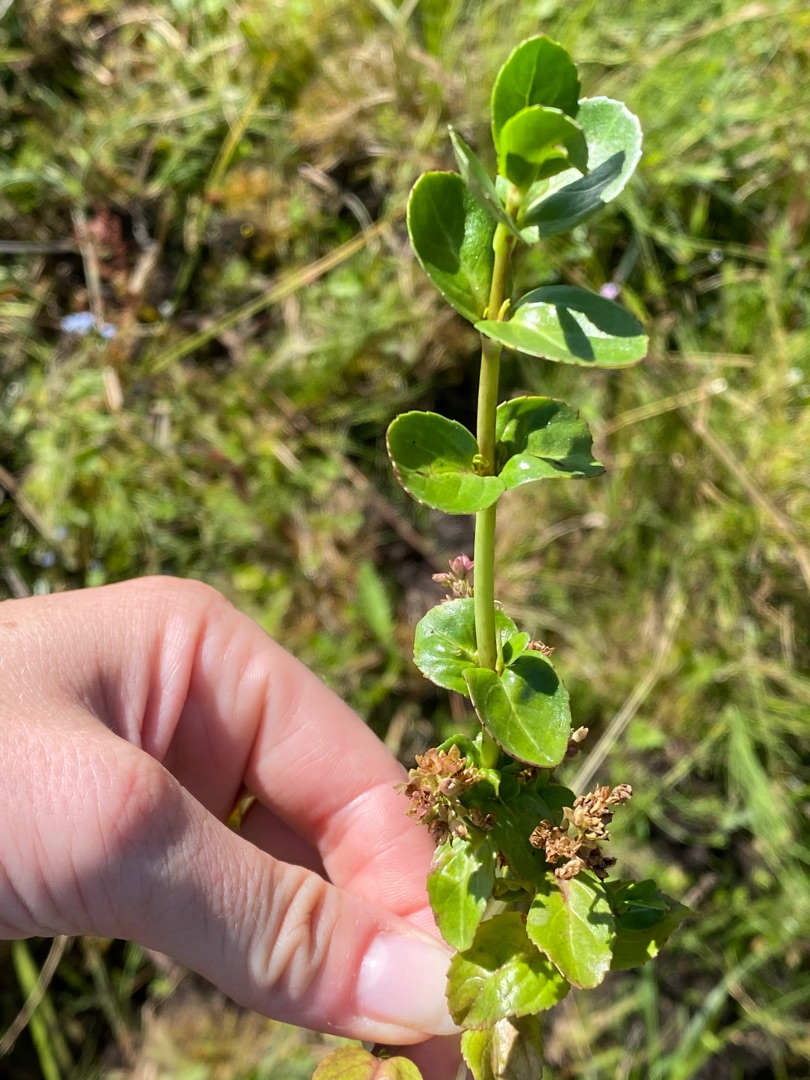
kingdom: Plantae
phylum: Tracheophyta
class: Magnoliopsida
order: Lamiales
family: Plantaginaceae
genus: Veronica
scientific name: Veronica beccabunga
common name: Tykbladet ærenpris
